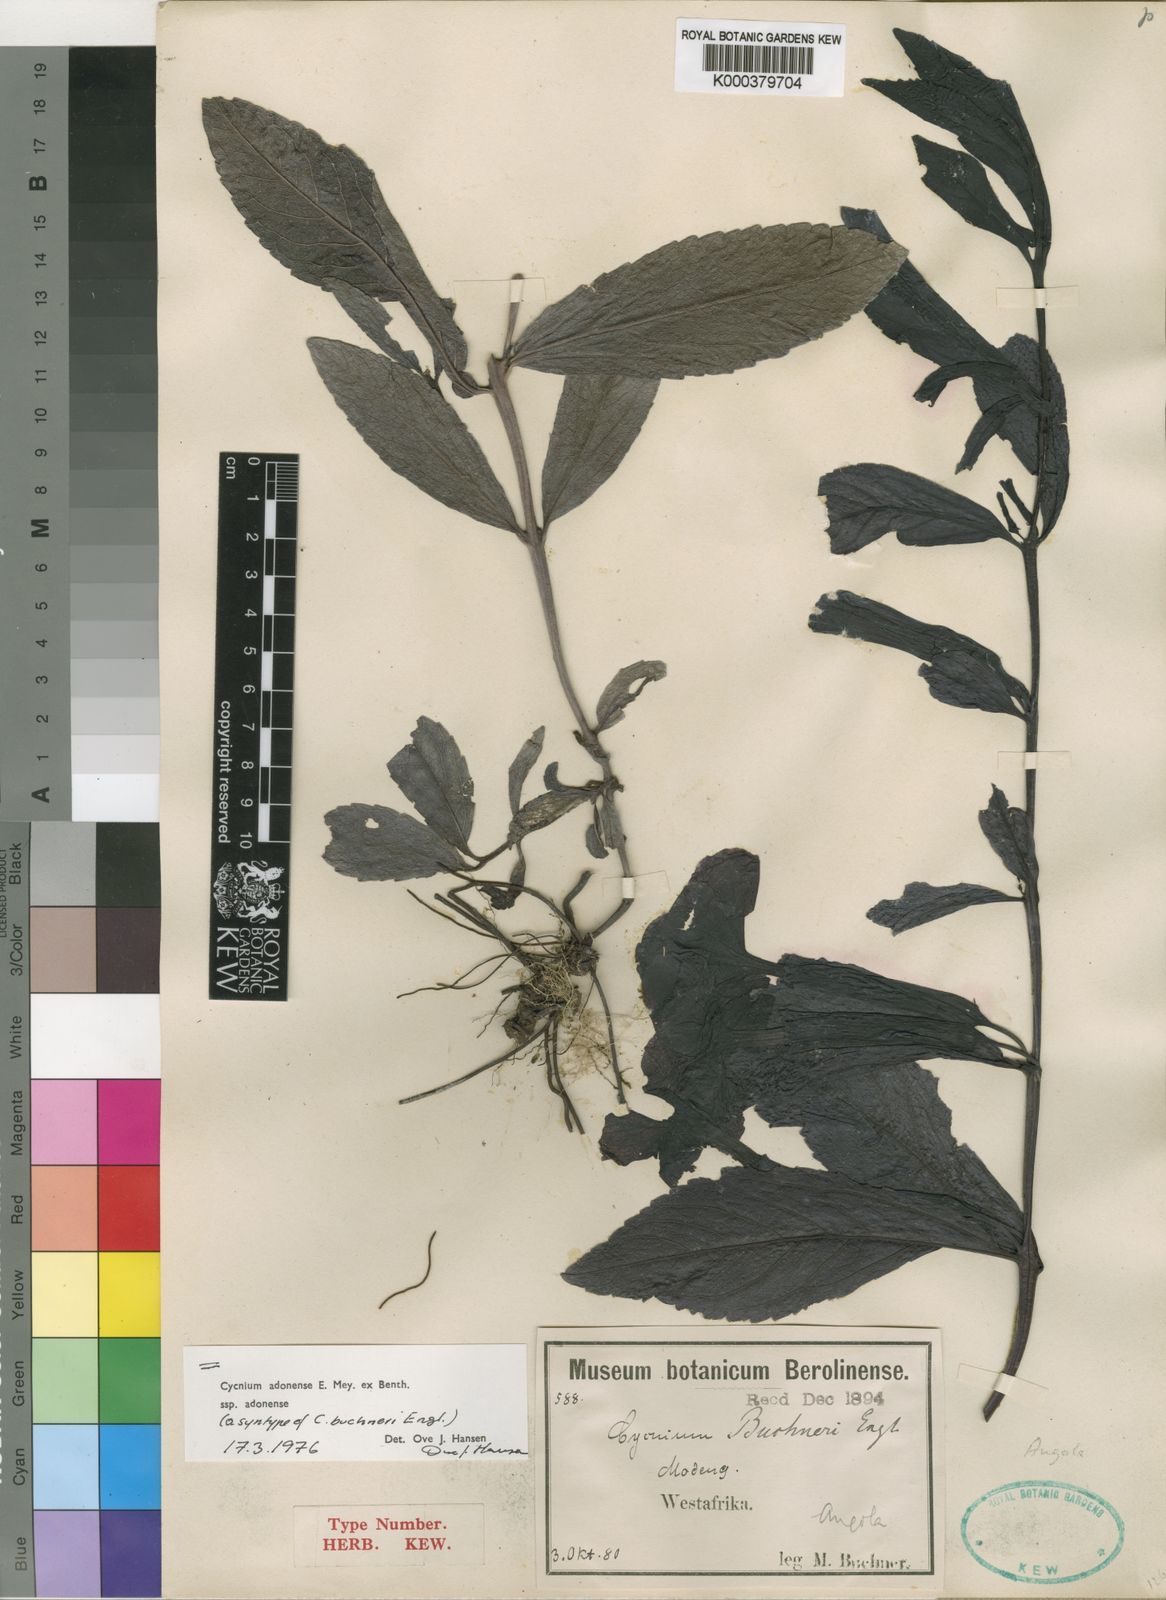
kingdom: Plantae
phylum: Tracheophyta
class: Magnoliopsida
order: Lamiales
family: Orobanchaceae
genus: Cycnium
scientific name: Cycnium adonense
